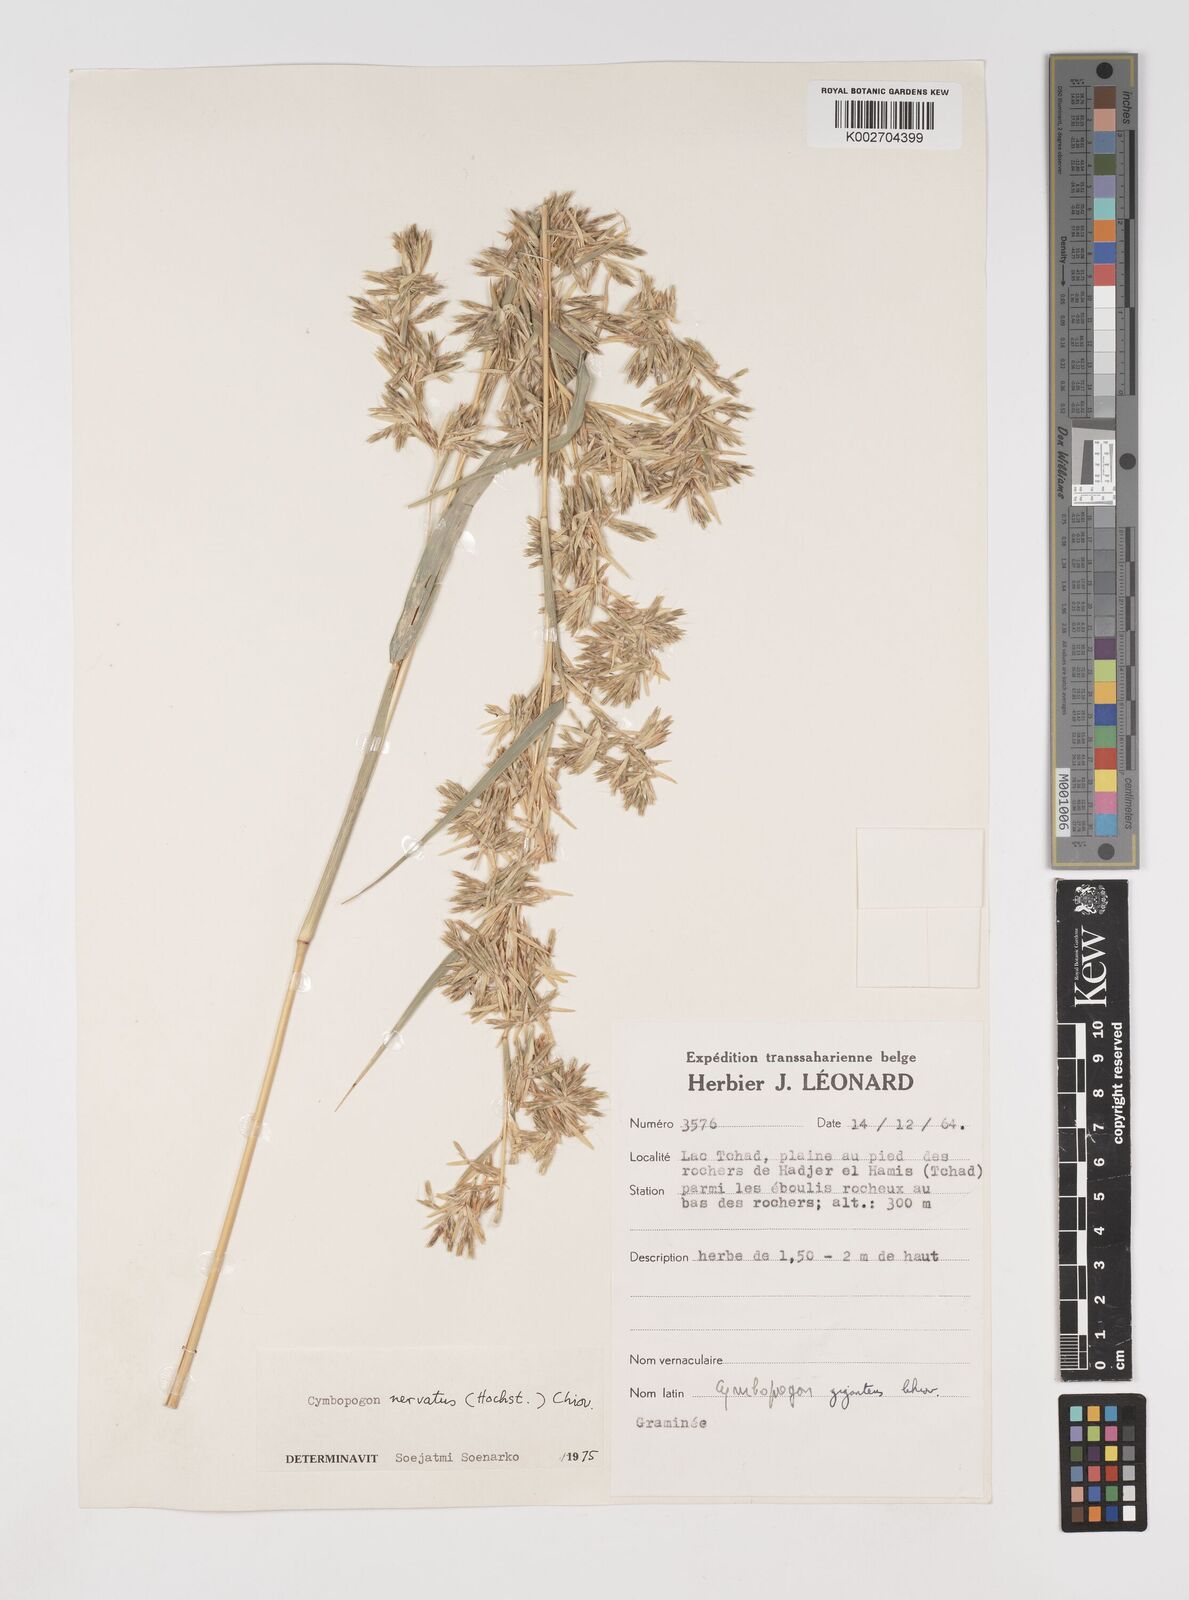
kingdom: Plantae
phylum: Tracheophyta
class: Liliopsida
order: Poales
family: Poaceae
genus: Cymbopogon
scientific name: Cymbopogon giganteus
